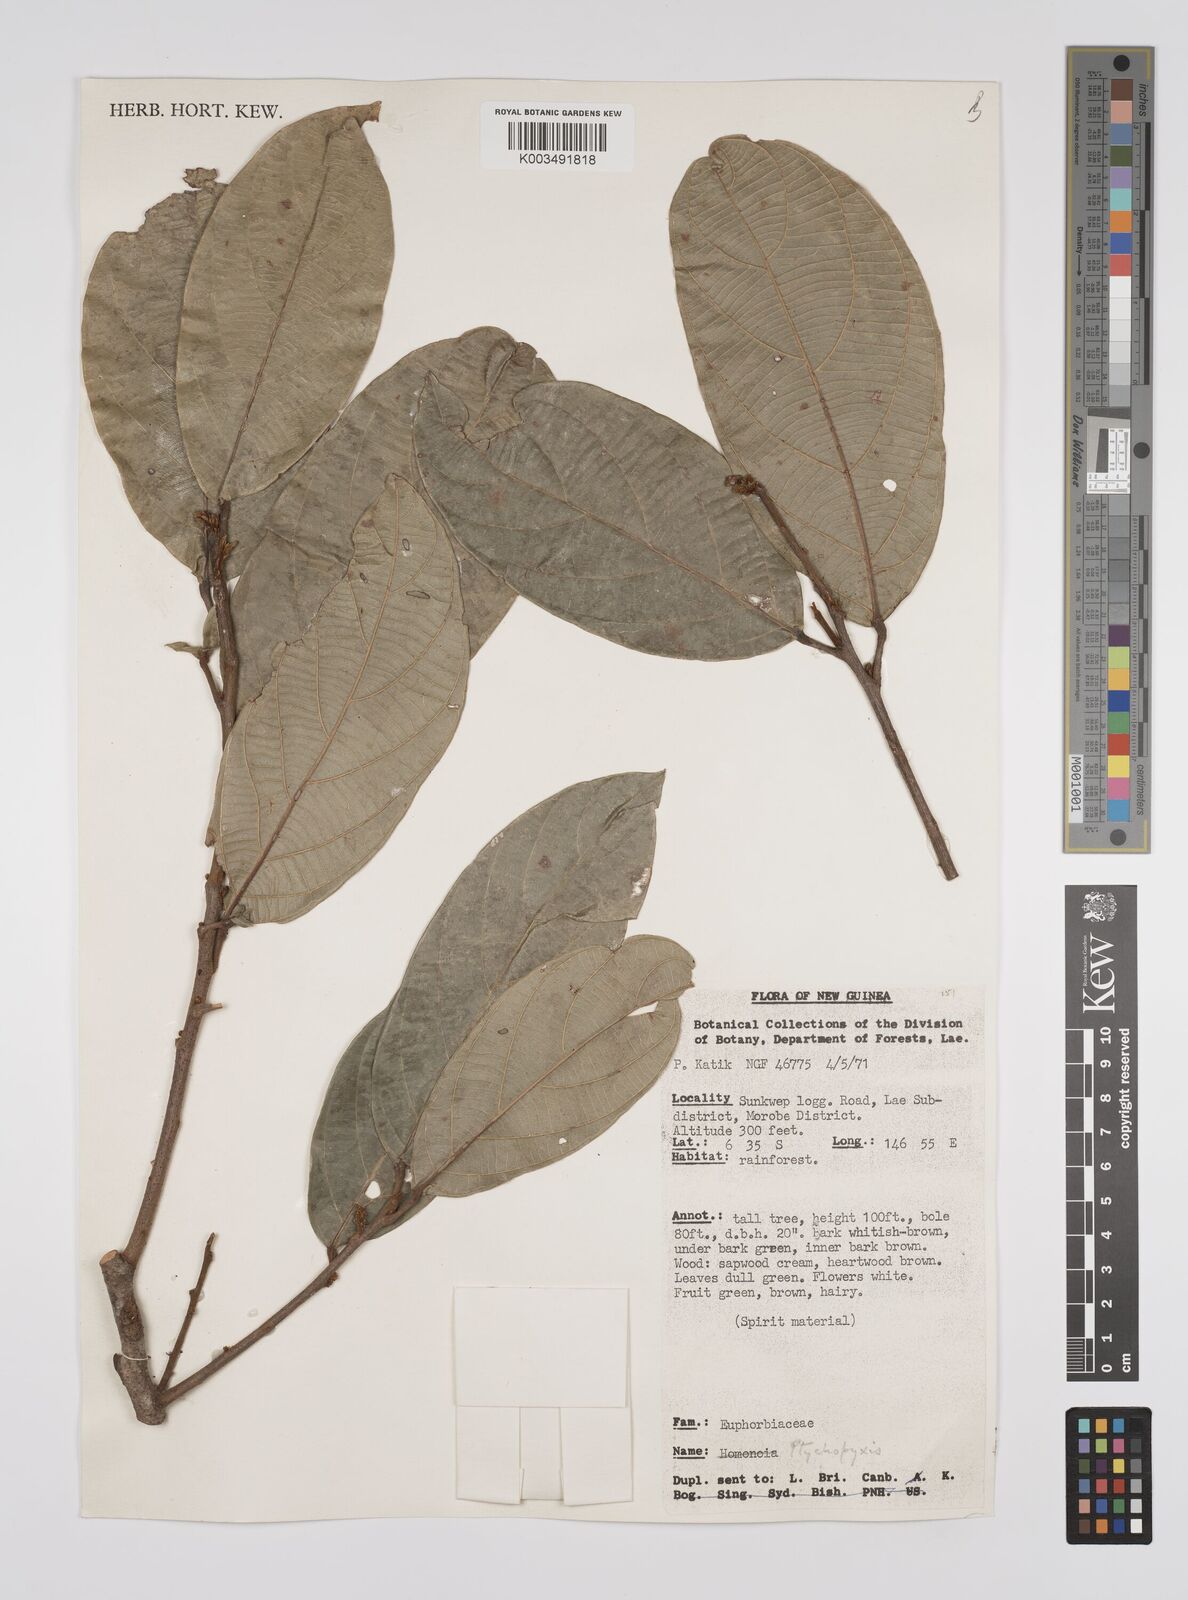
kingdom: Plantae
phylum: Tracheophyta
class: Magnoliopsida
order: Malpighiales
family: Euphorbiaceae
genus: Ptychopyxis
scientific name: Ptychopyxis chrysantha
